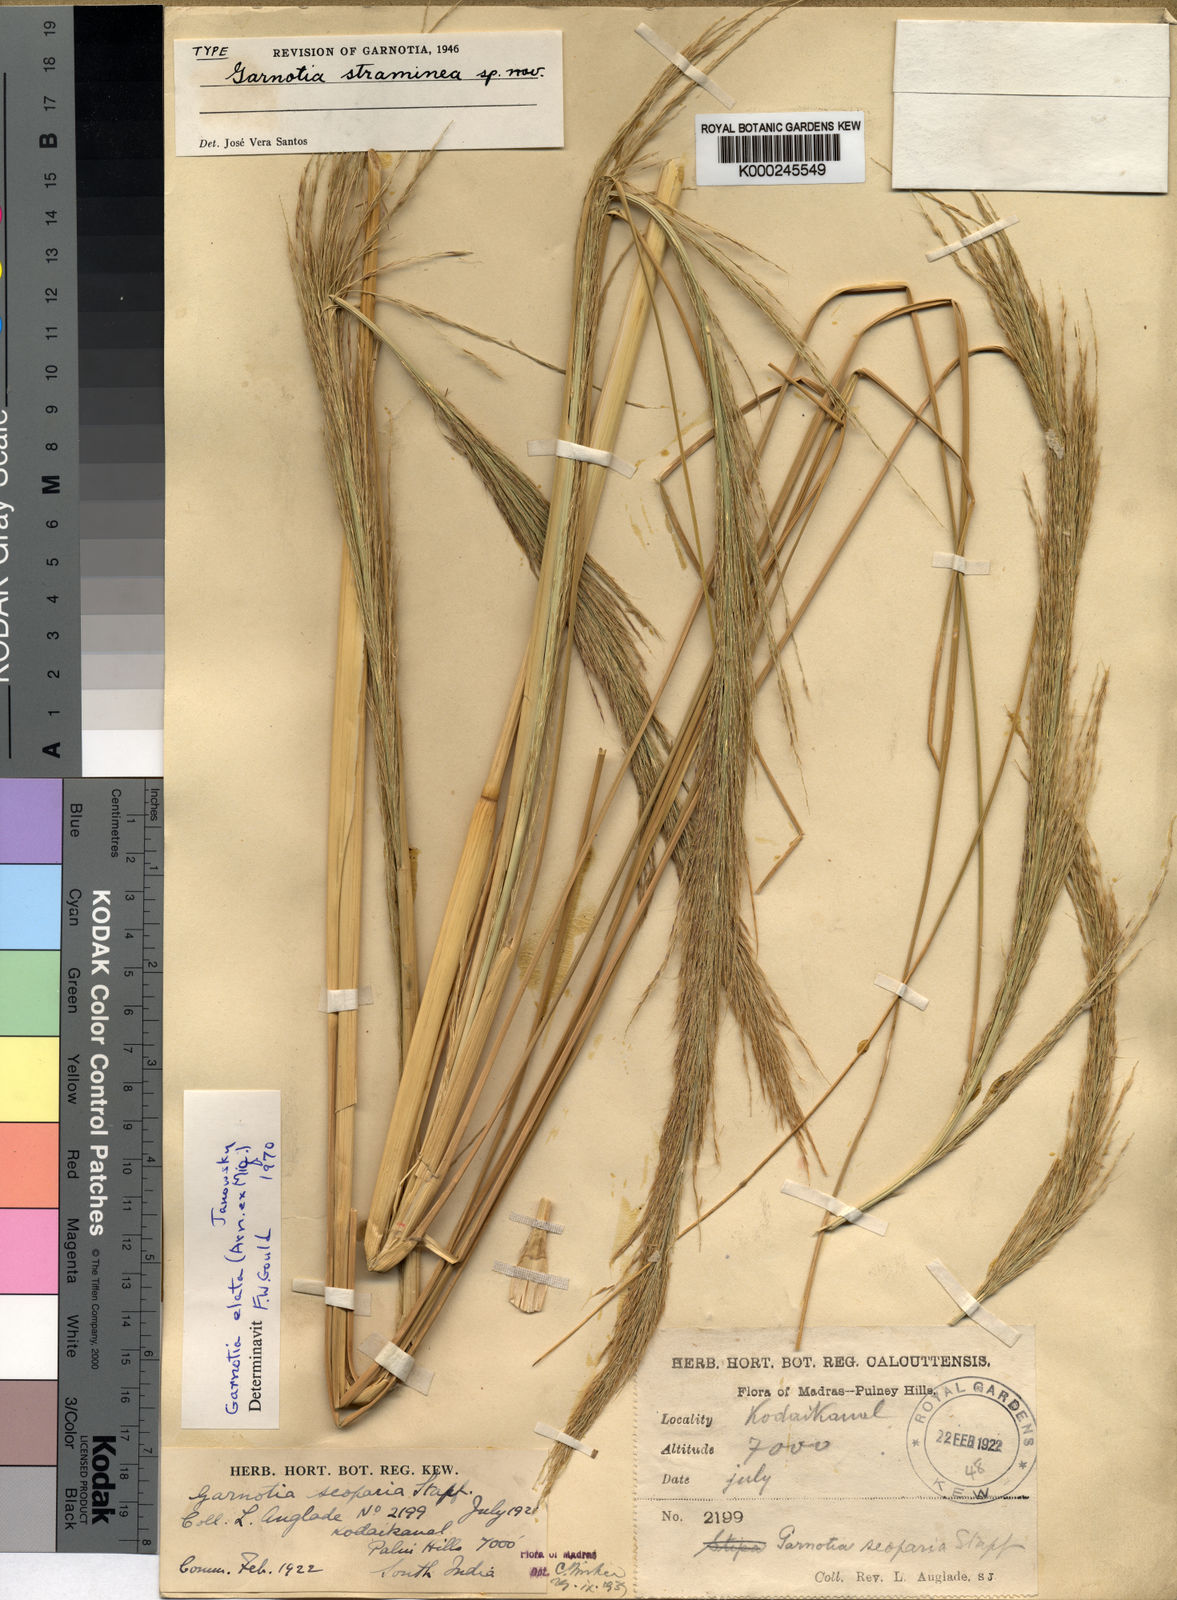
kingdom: Plantae
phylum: Tracheophyta
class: Liliopsida
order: Poales
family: Poaceae
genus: Garnotia
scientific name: Garnotia elata
